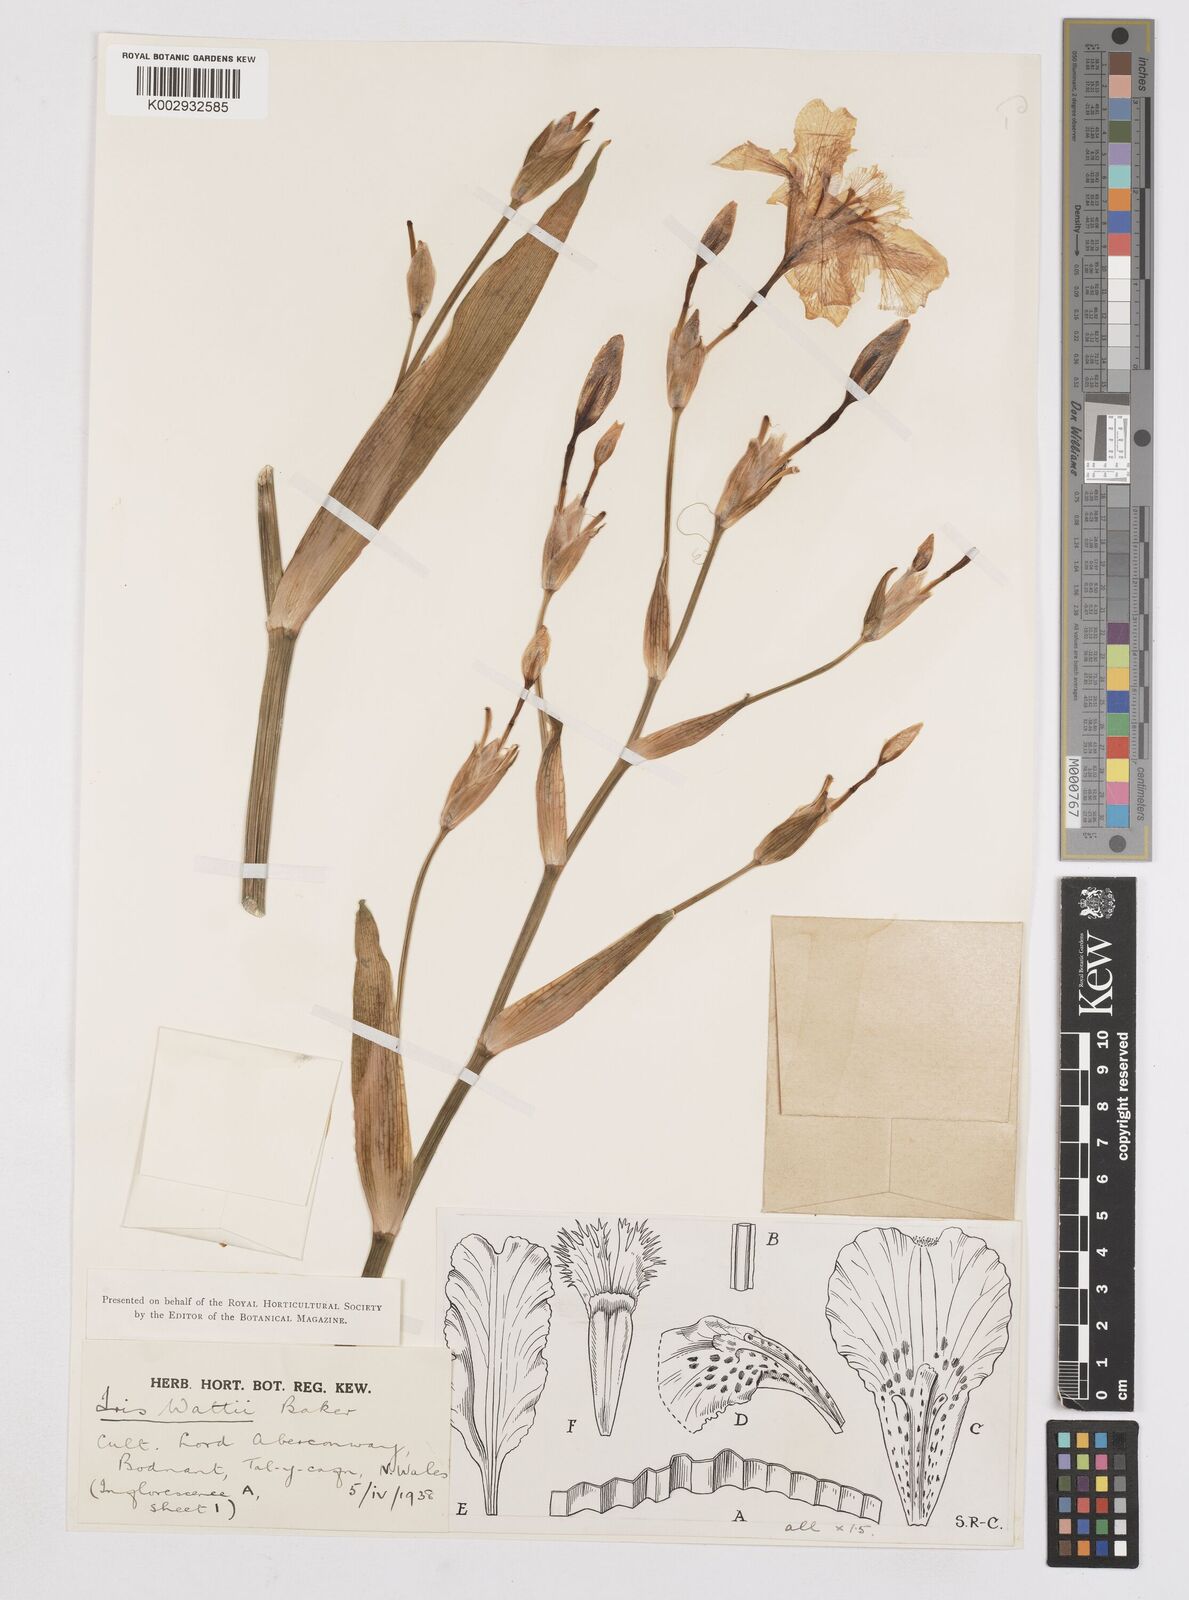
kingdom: Plantae
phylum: Tracheophyta
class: Liliopsida
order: Asparagales
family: Iridaceae
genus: Iris
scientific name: Iris wattii
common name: Fan-shape iris
